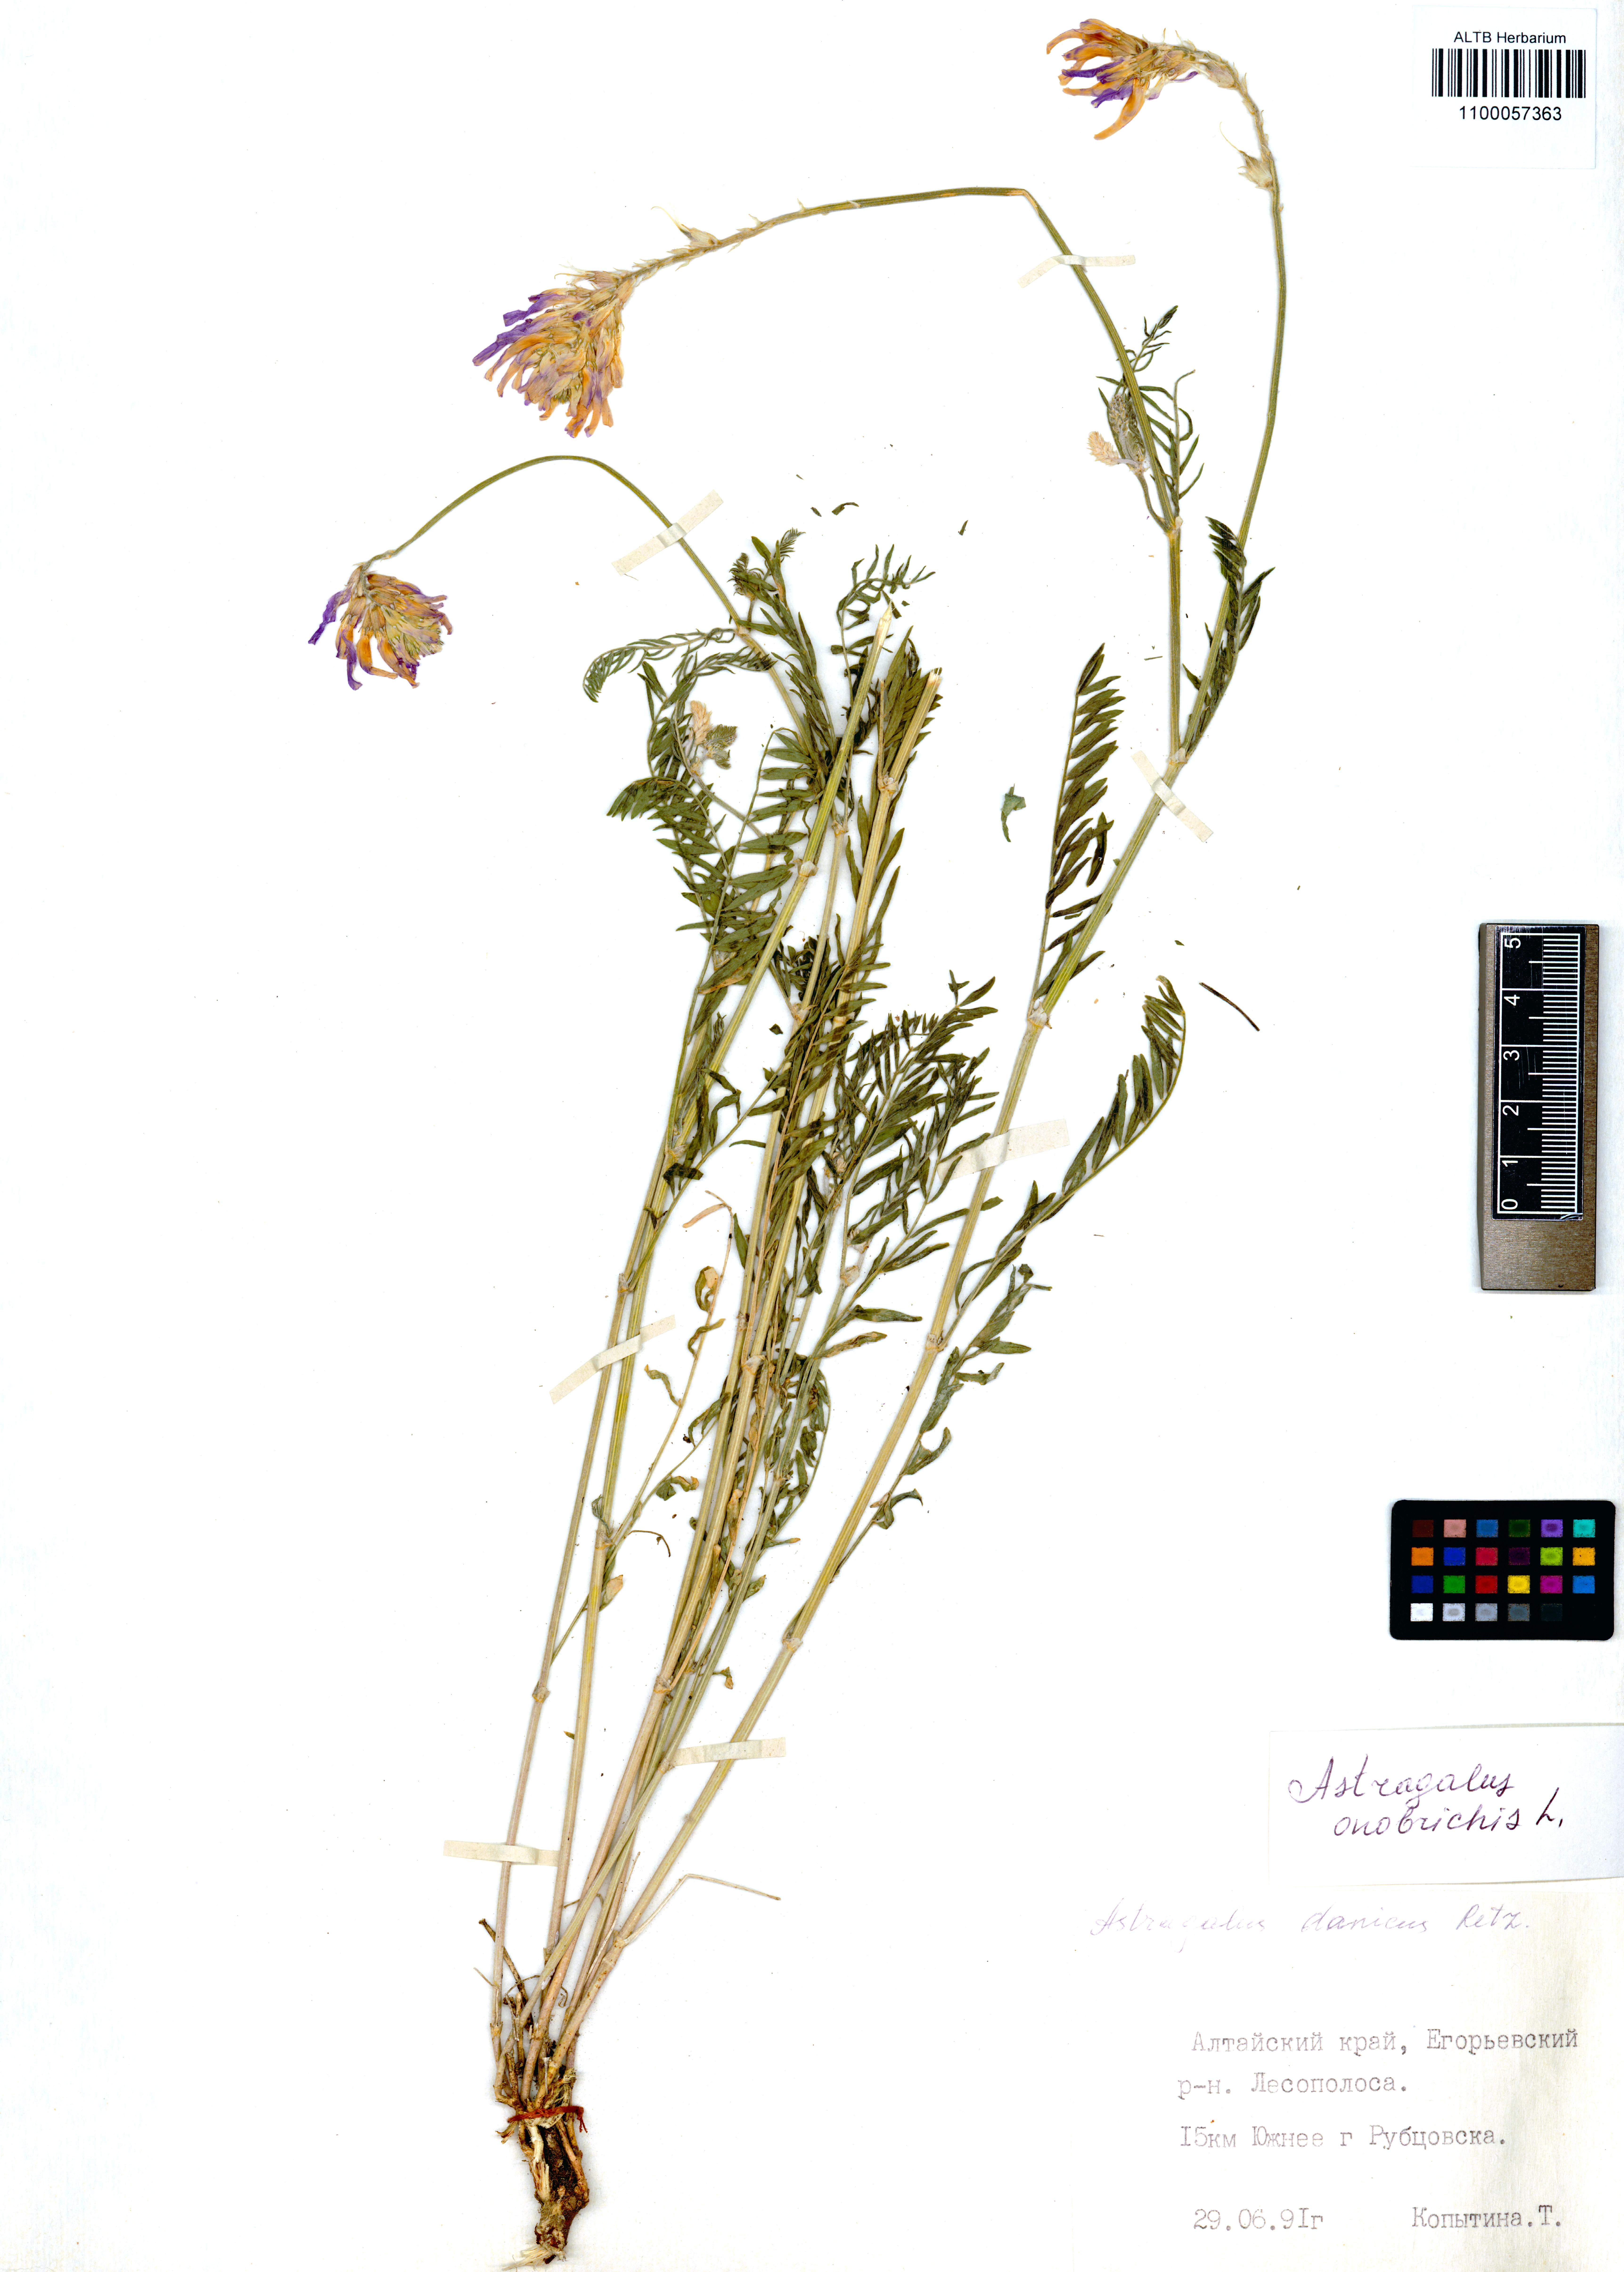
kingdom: Plantae
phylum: Tracheophyta
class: Magnoliopsida
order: Fabales
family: Fabaceae
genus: Astragalus
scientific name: Astragalus onobrychis
